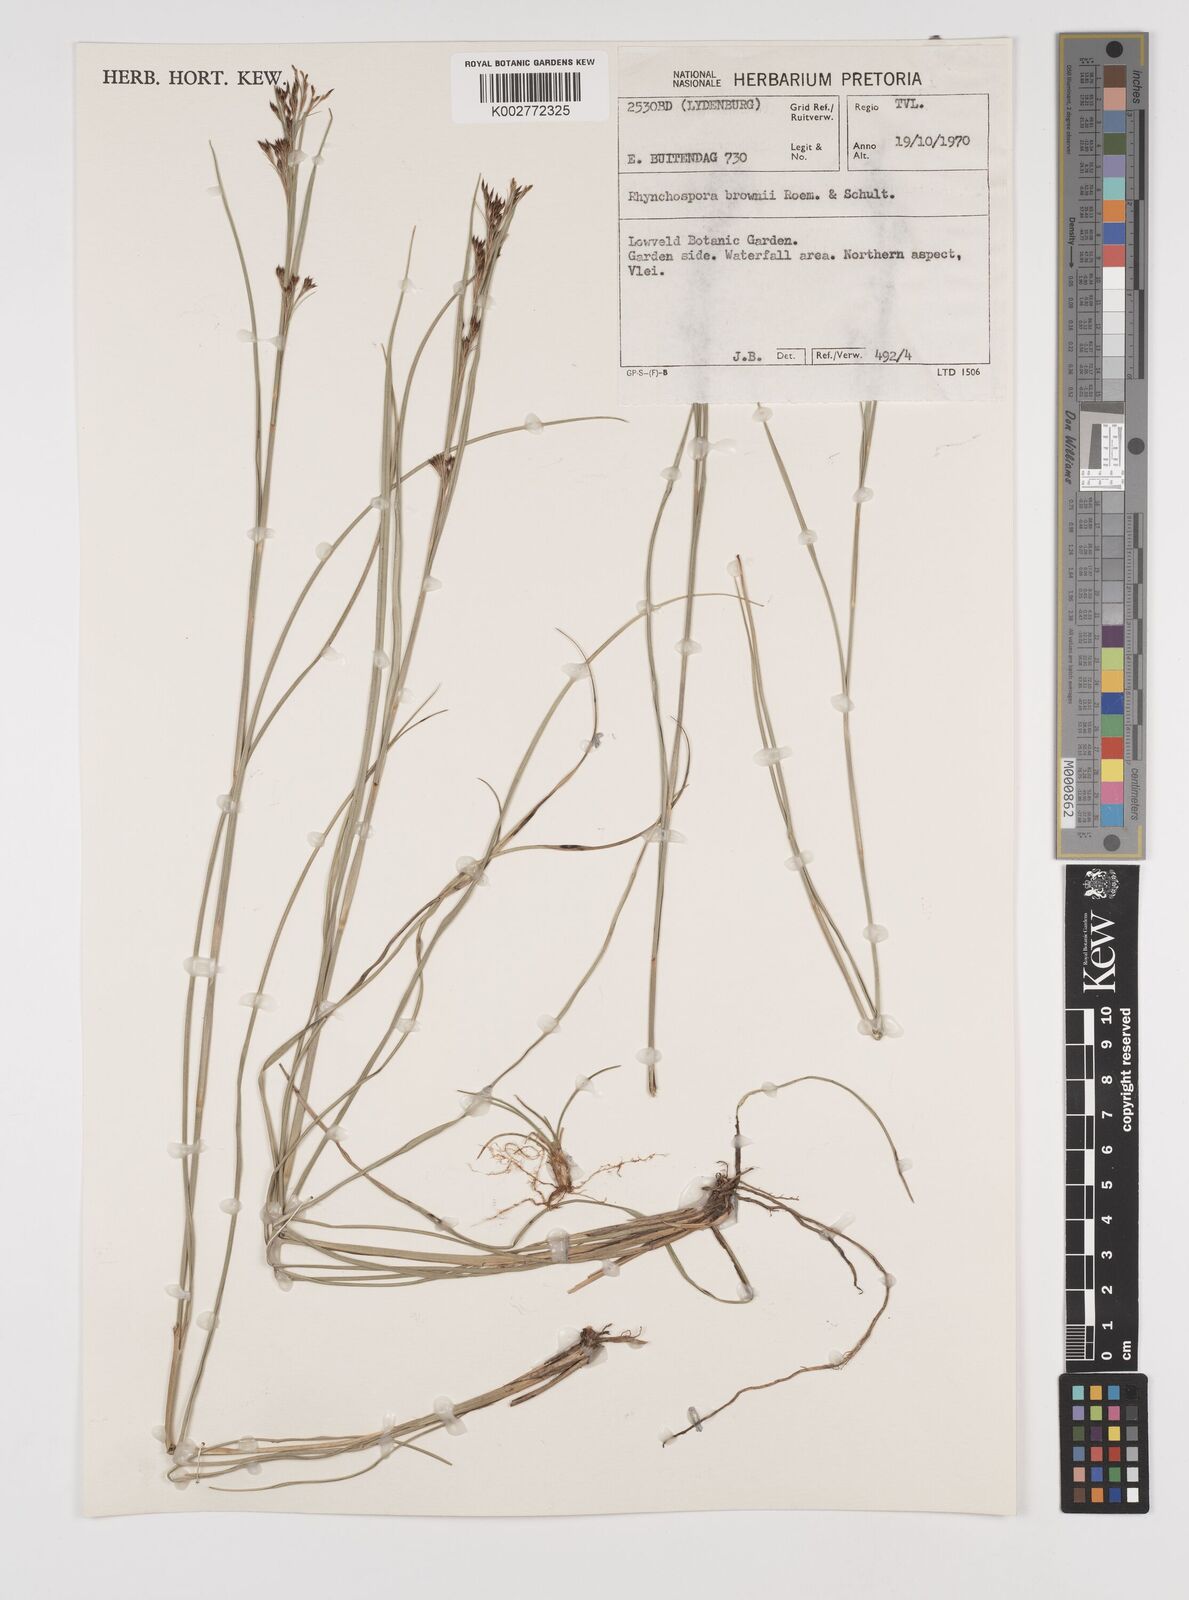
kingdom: Plantae
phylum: Tracheophyta
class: Liliopsida
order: Poales
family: Cyperaceae
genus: Rhynchospora
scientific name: Rhynchospora rugosa
